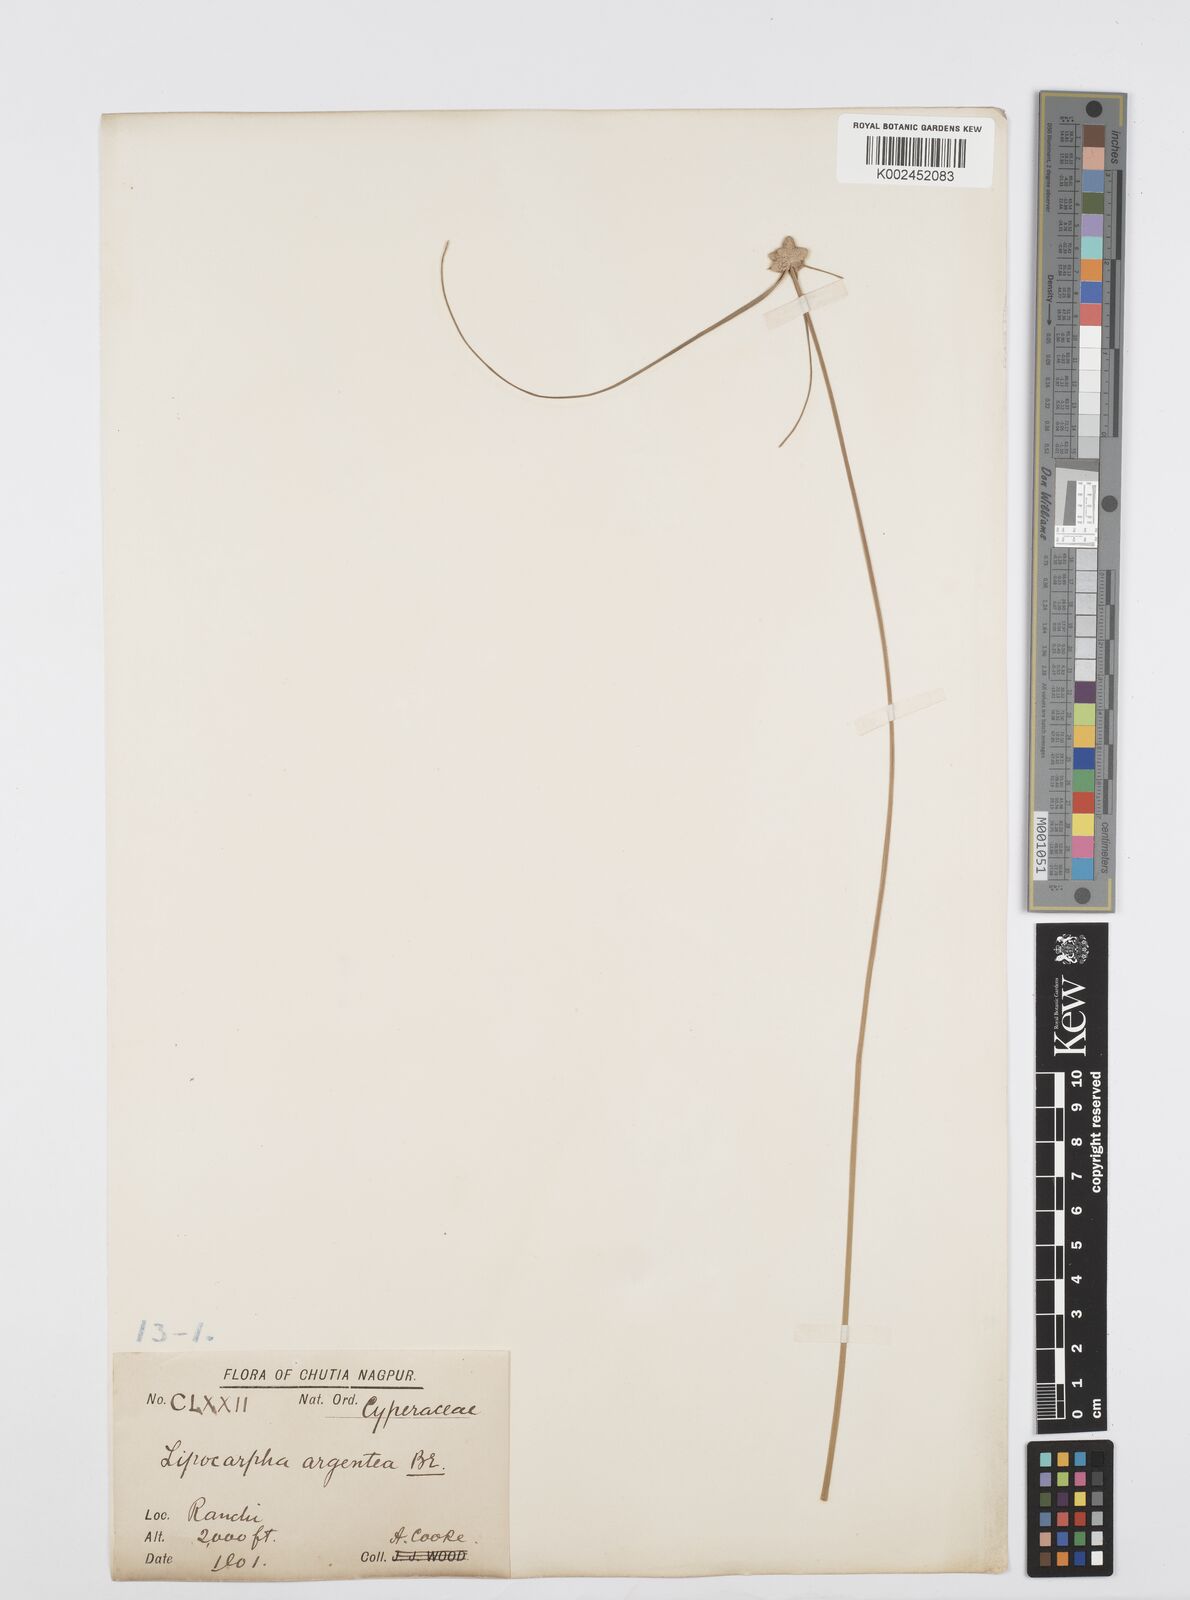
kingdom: Plantae
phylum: Tracheophyta
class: Liliopsida
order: Poales
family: Cyperaceae
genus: Cyperus
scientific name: Cyperus
